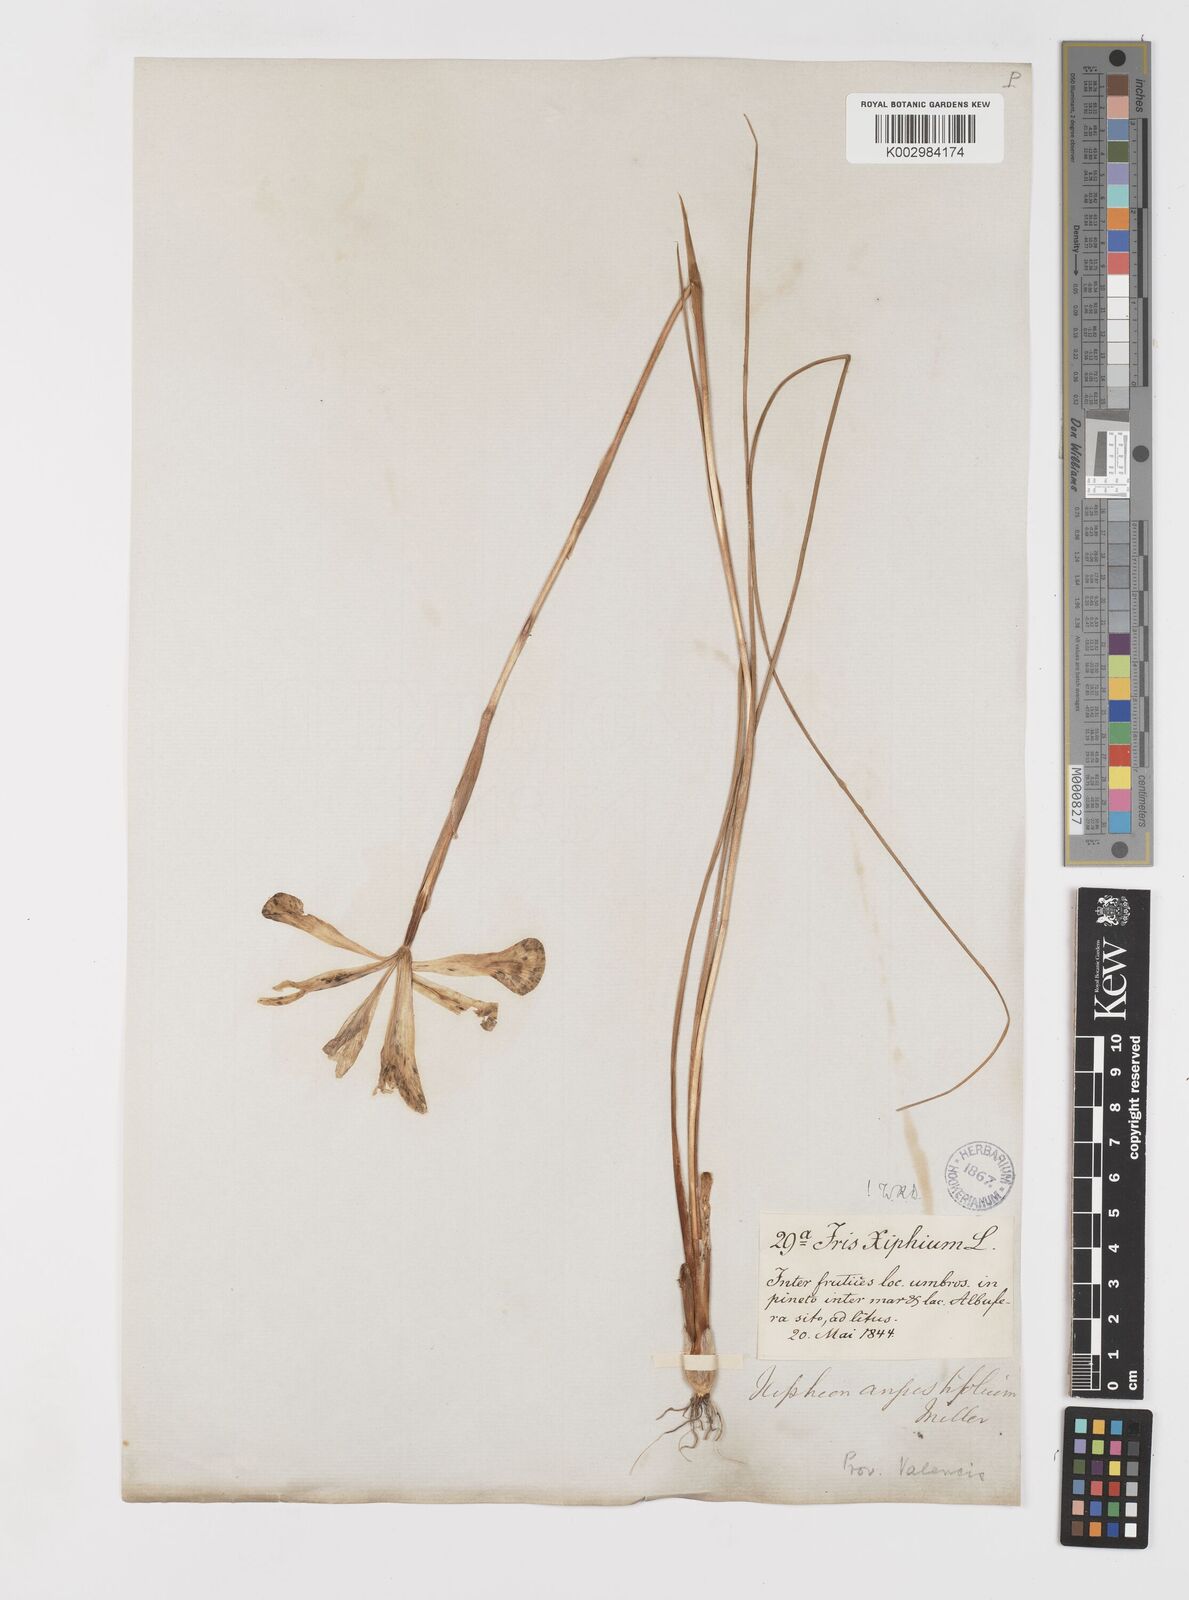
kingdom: Plantae
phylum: Tracheophyta
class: Liliopsida
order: Asparagales
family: Iridaceae
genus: Iris
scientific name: Iris xiphium
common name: Spanish iris
